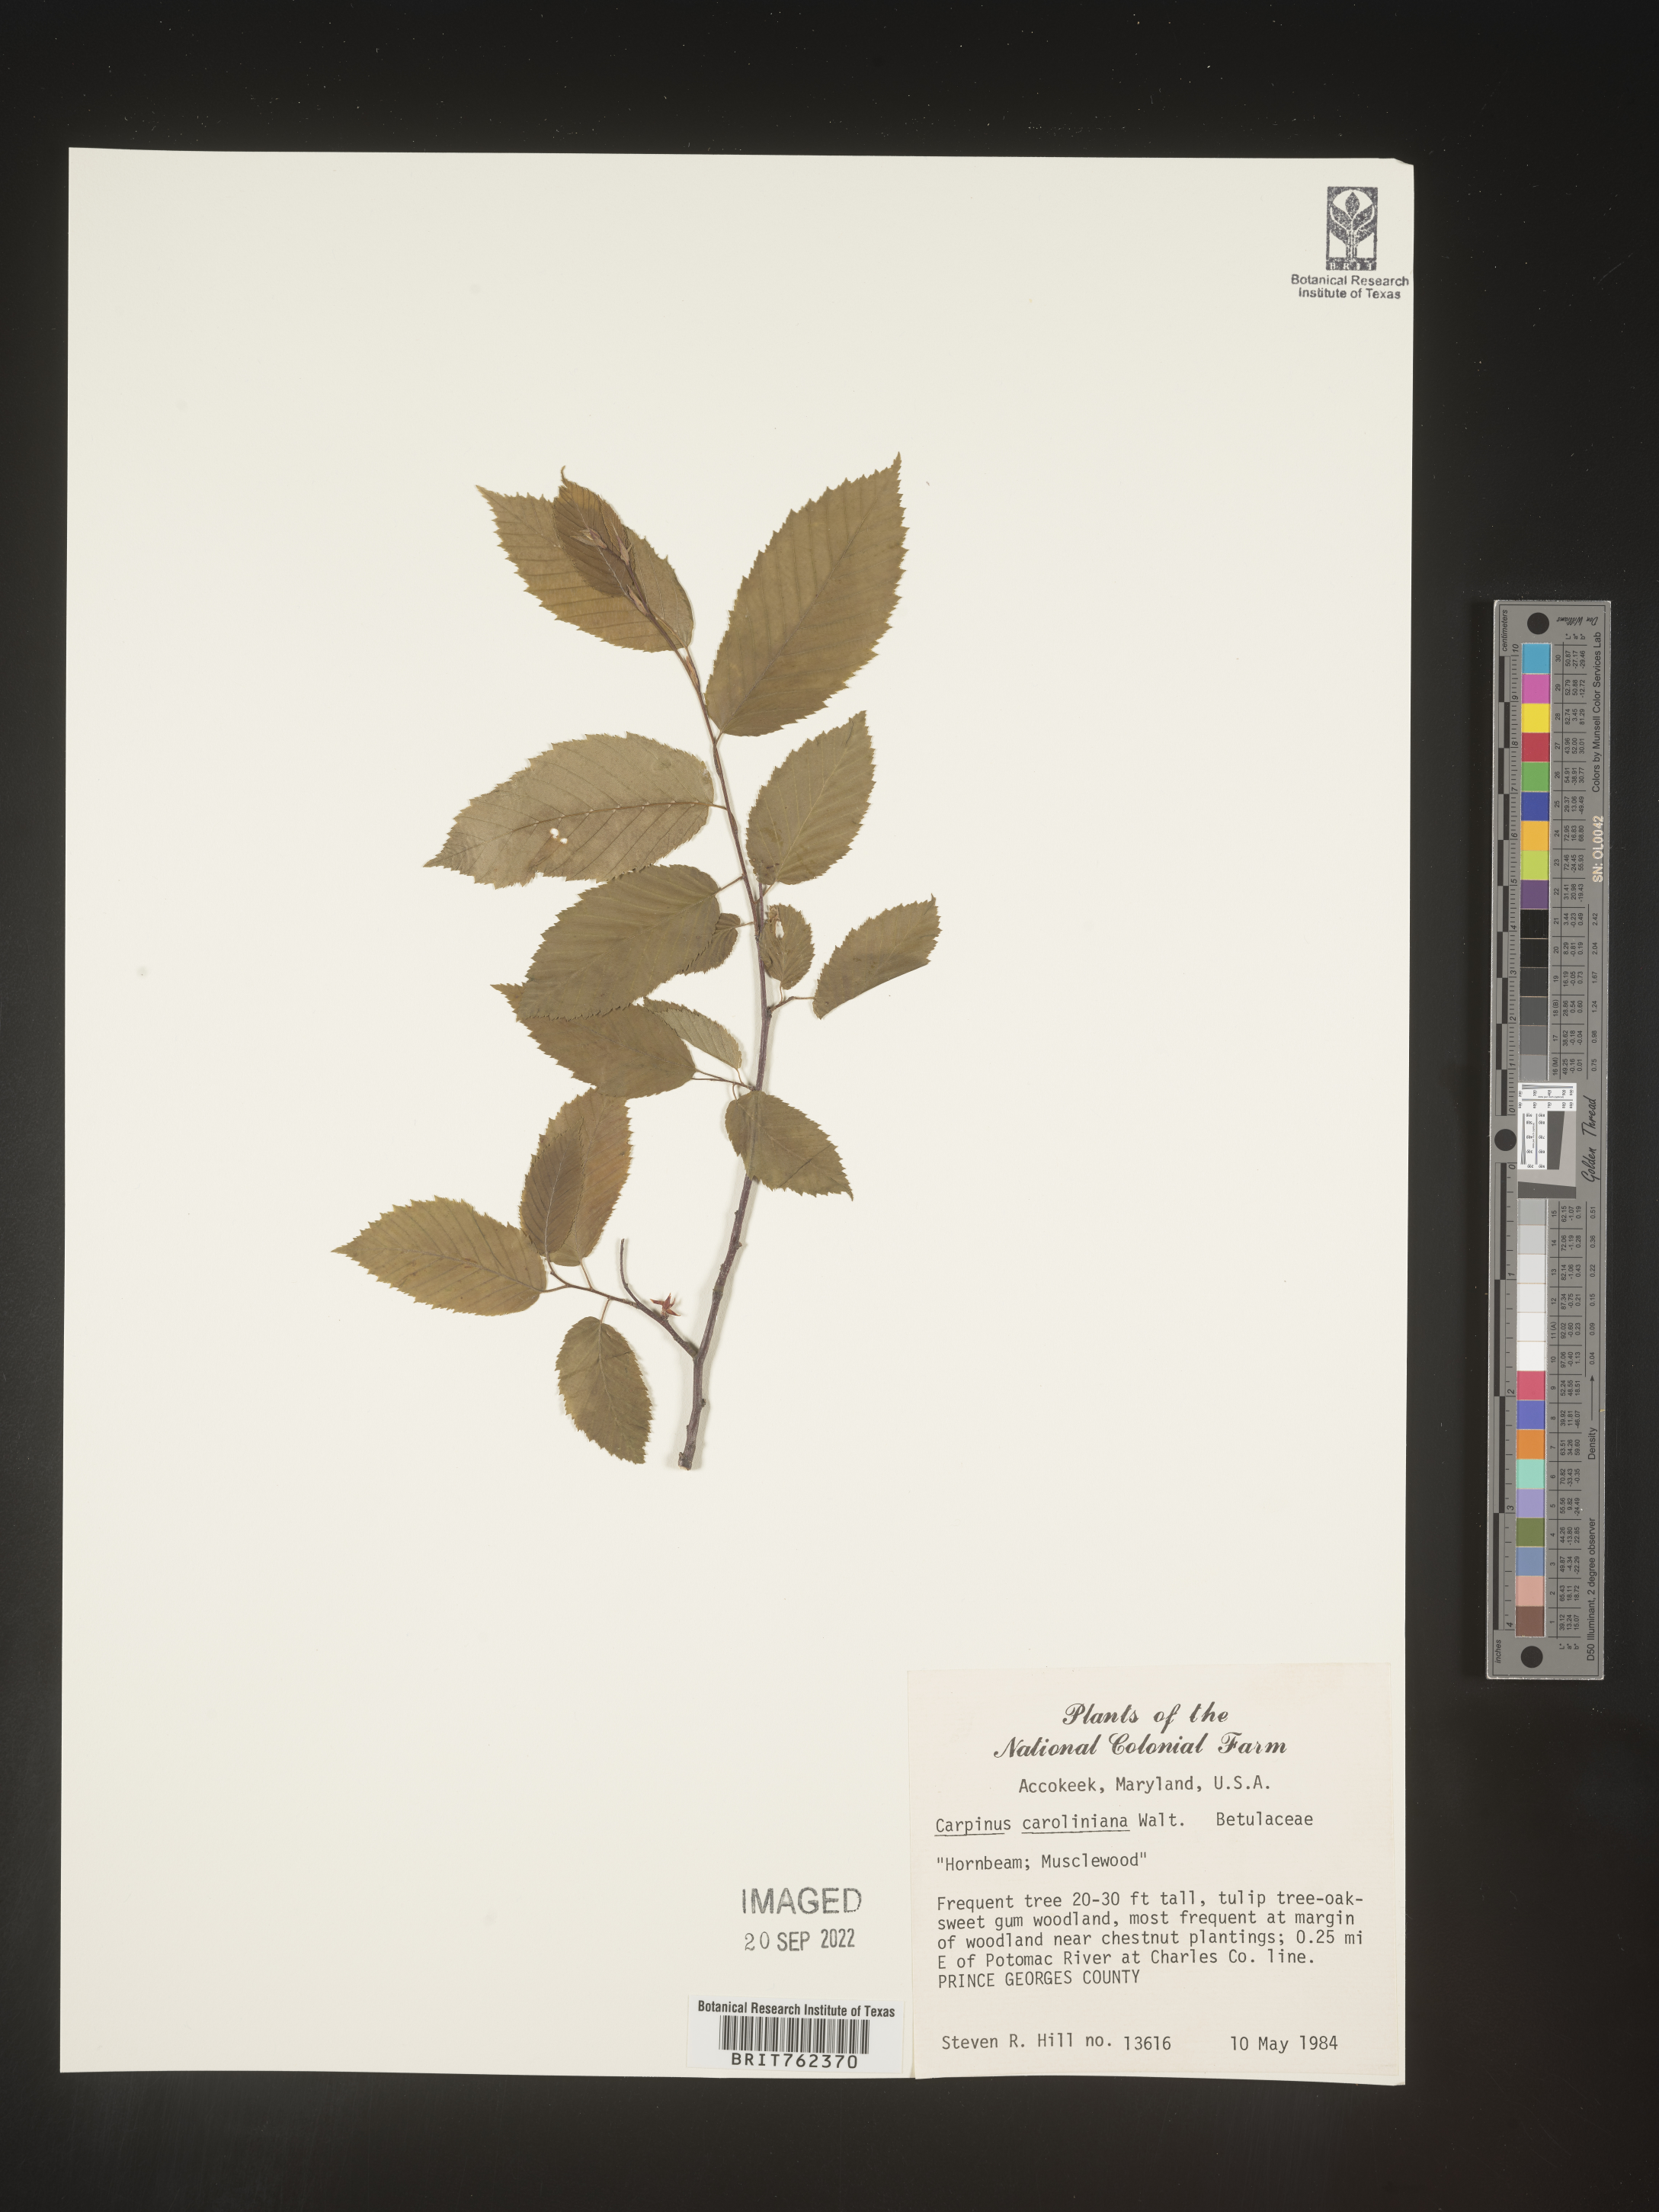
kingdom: Plantae
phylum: Tracheophyta
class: Magnoliopsida
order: Fagales
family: Betulaceae
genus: Carpinus
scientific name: Carpinus caroliniana
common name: American hornbeam
